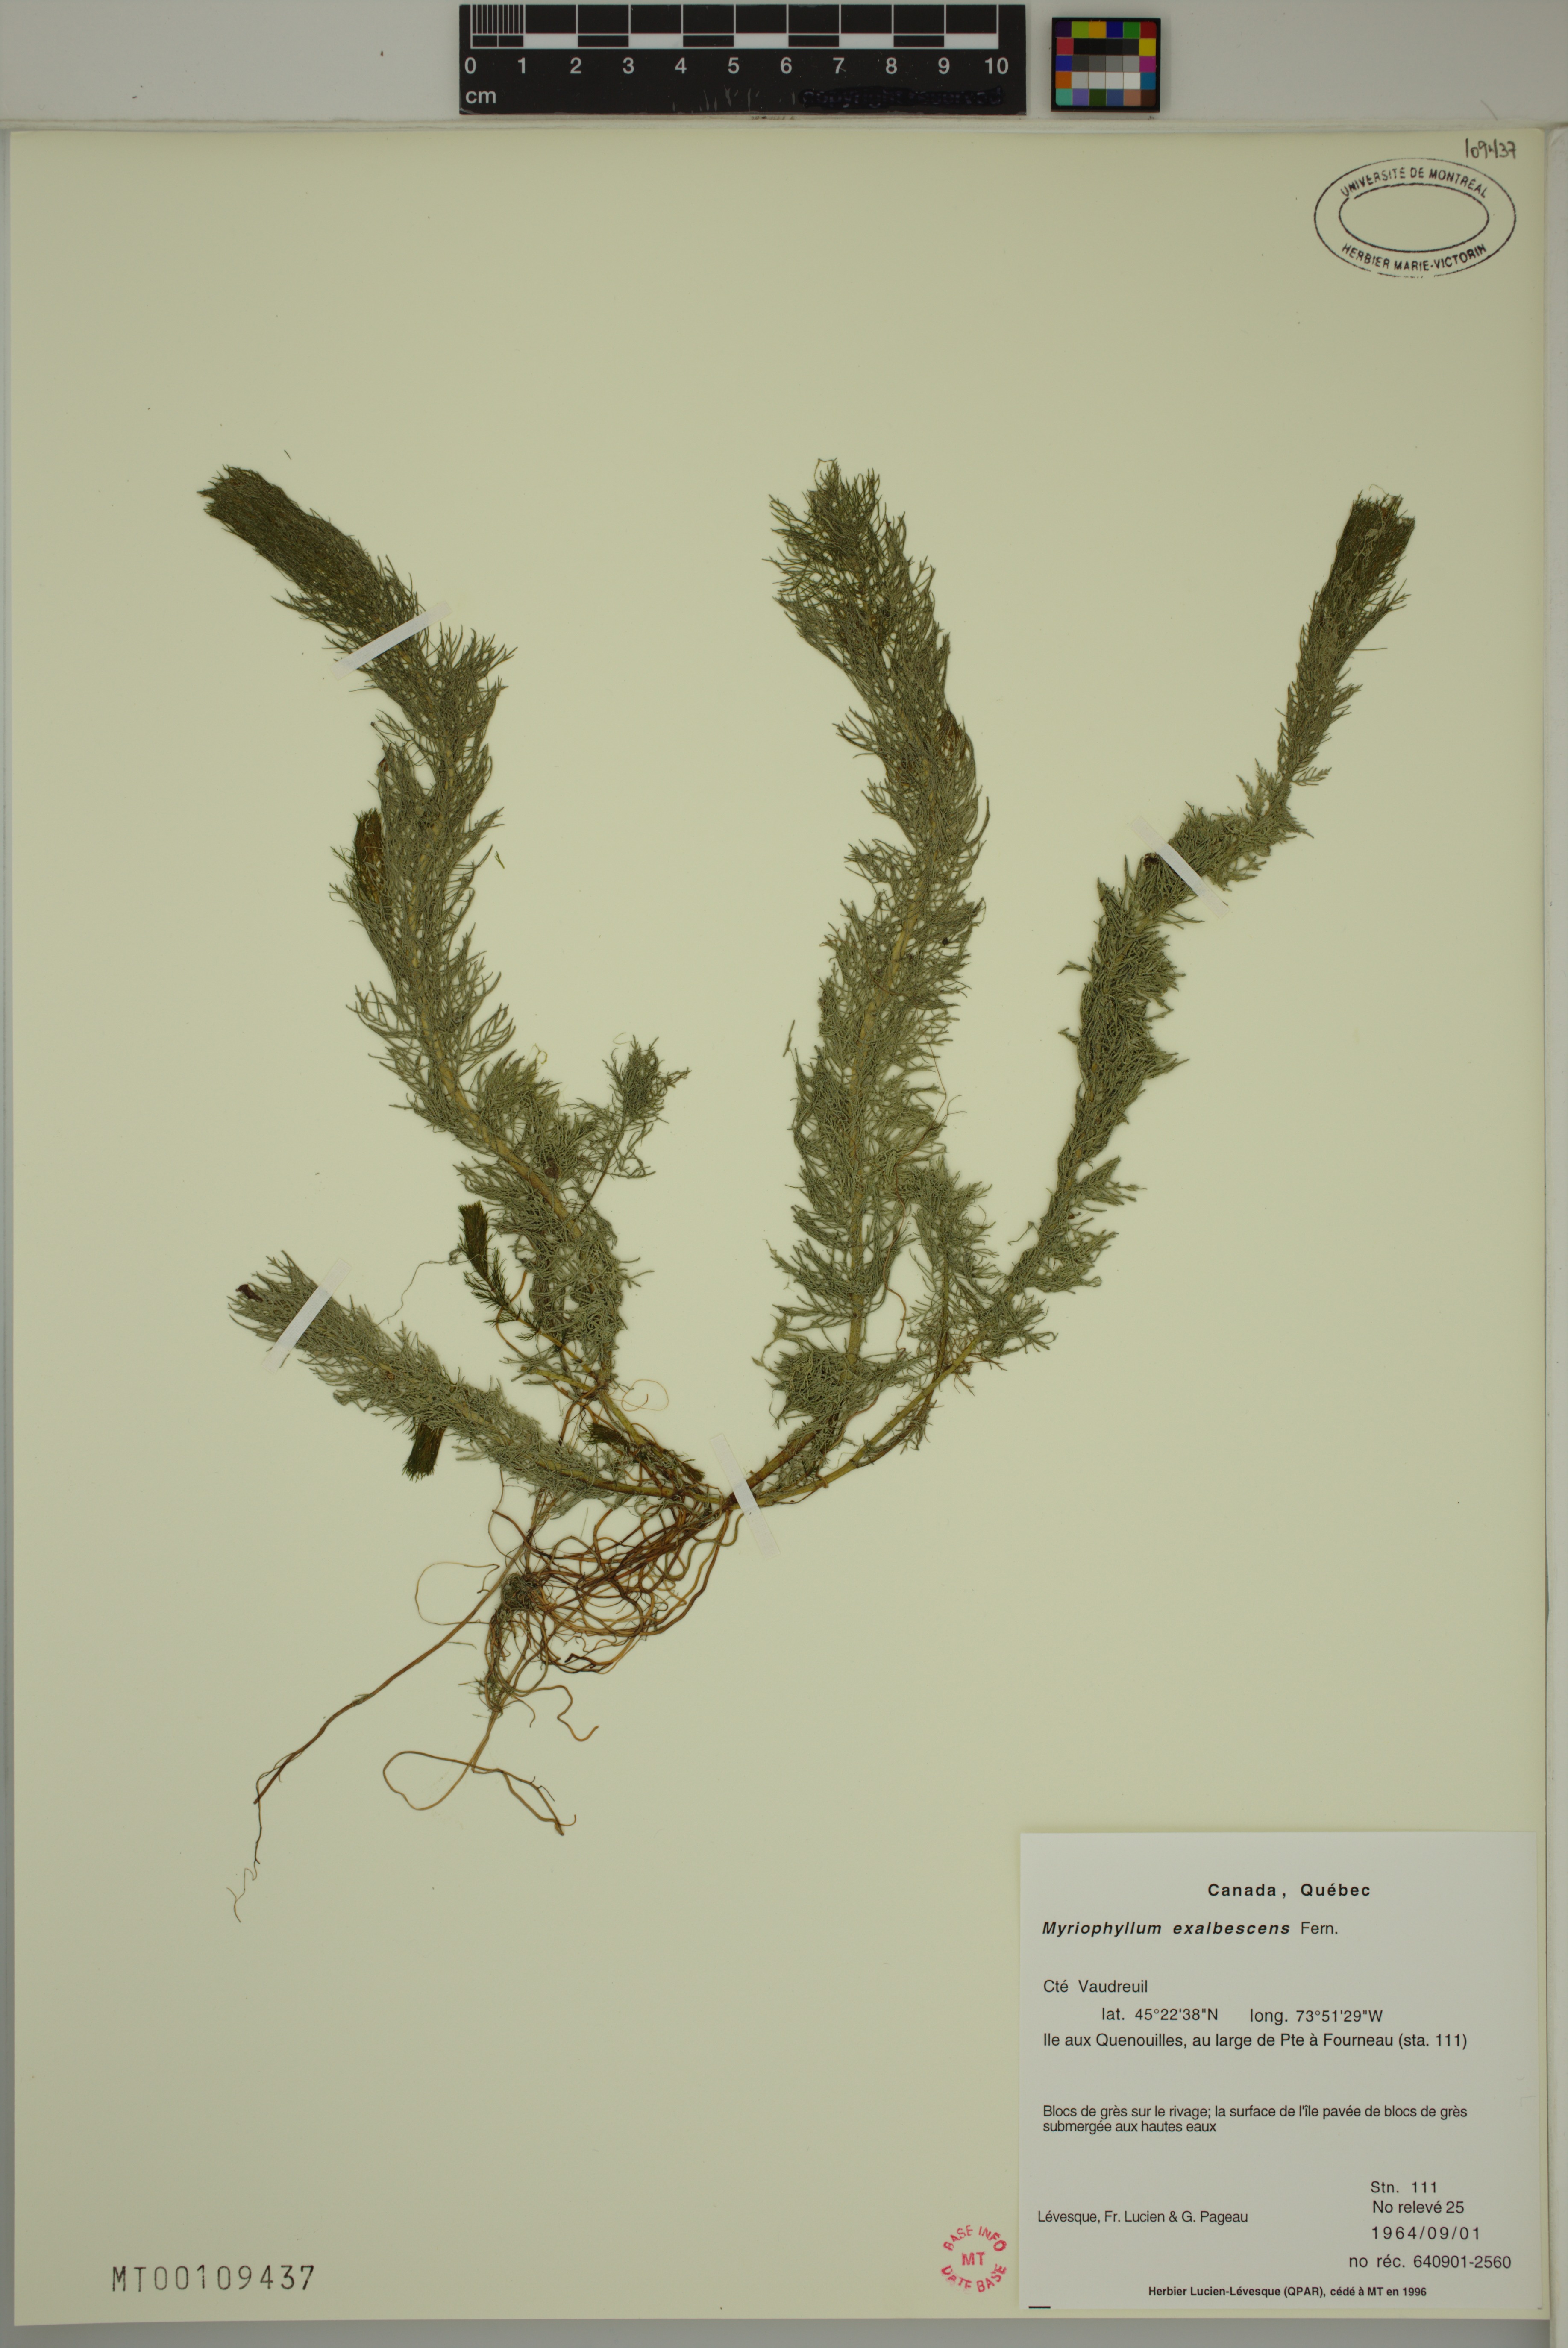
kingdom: Plantae
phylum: Tracheophyta
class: Magnoliopsida
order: Saxifragales
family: Haloragaceae
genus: Myriophyllum
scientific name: Myriophyllum sibiricum
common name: Siberian water-milfoil
